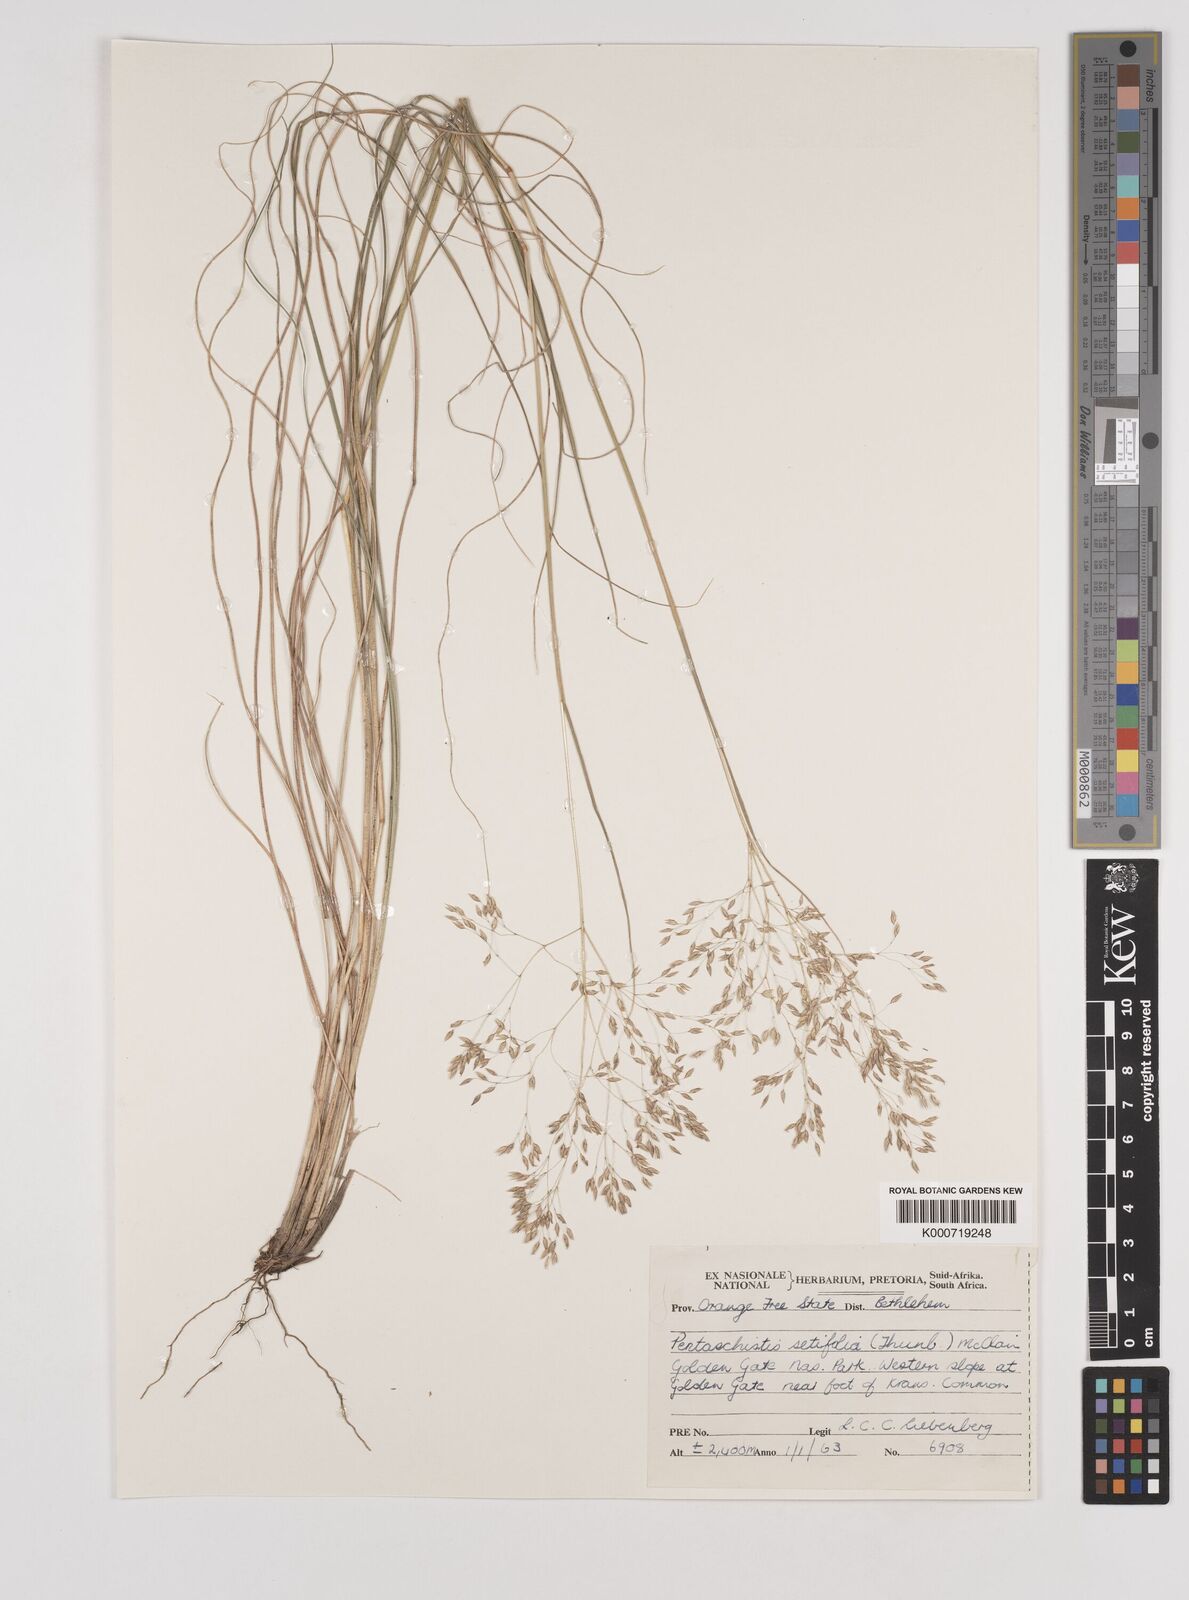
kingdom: Plantae
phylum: Tracheophyta
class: Liliopsida
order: Poales
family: Poaceae
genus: Pentameris
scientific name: Pentameris setifolia
